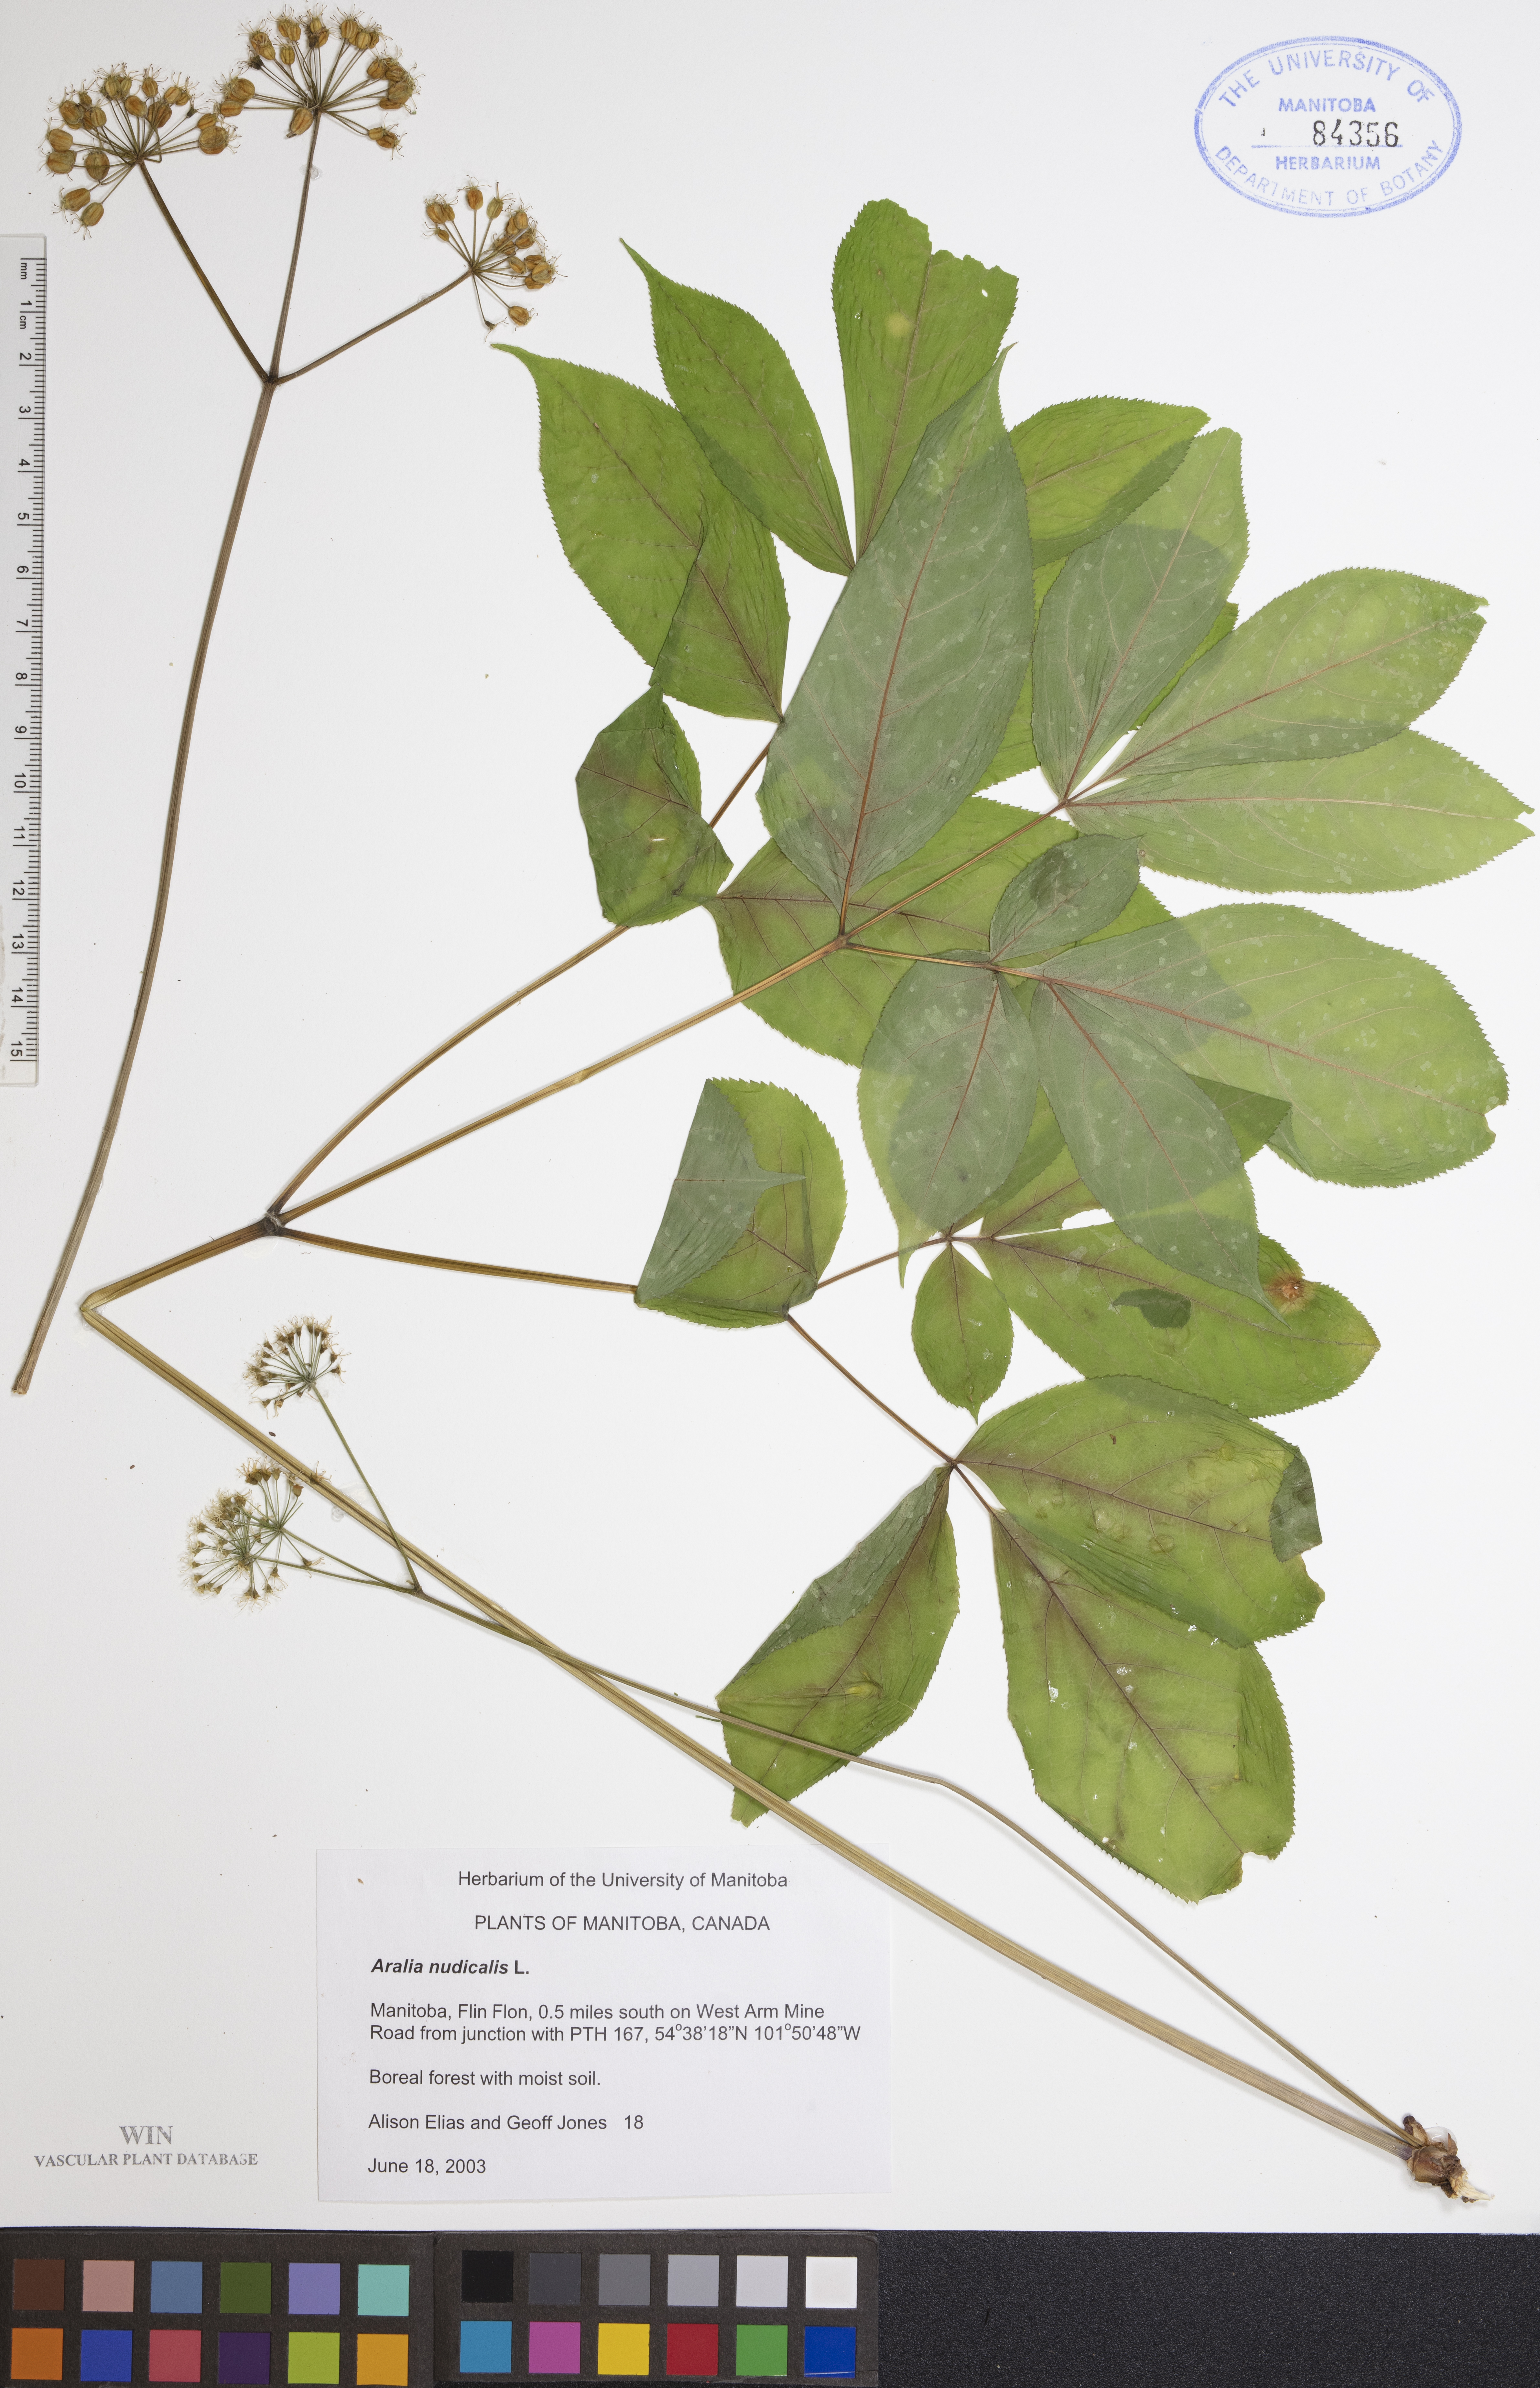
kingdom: Plantae
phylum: Tracheophyta
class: Magnoliopsida
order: Apiales
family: Araliaceae
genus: Aralia
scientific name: Aralia nudicaulis
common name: Wild sarsaparilla
